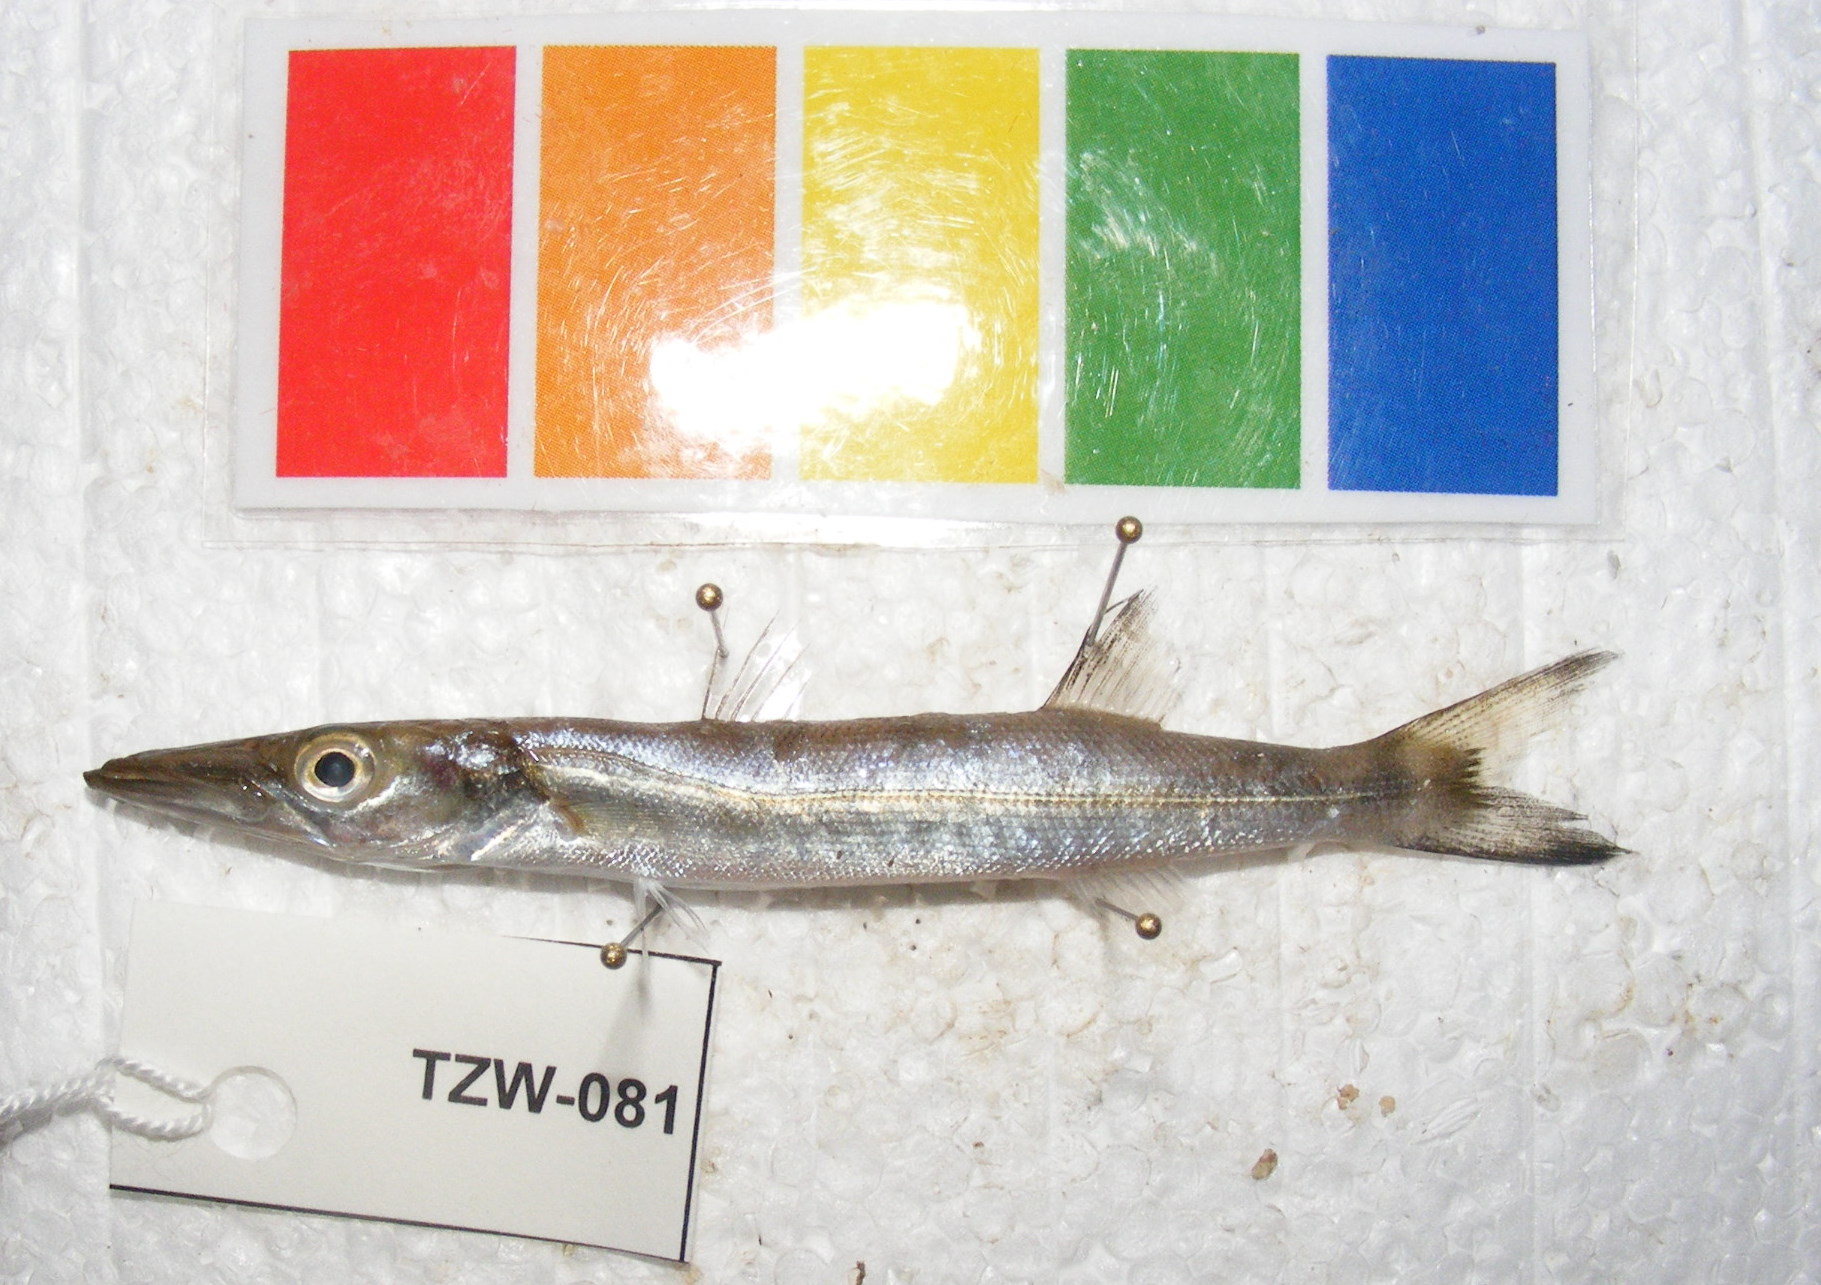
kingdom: Animalia
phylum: Chordata
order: Perciformes
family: Sphyraenidae
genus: Sphyraena
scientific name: Sphyraena barracuda
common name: Great barracuda
